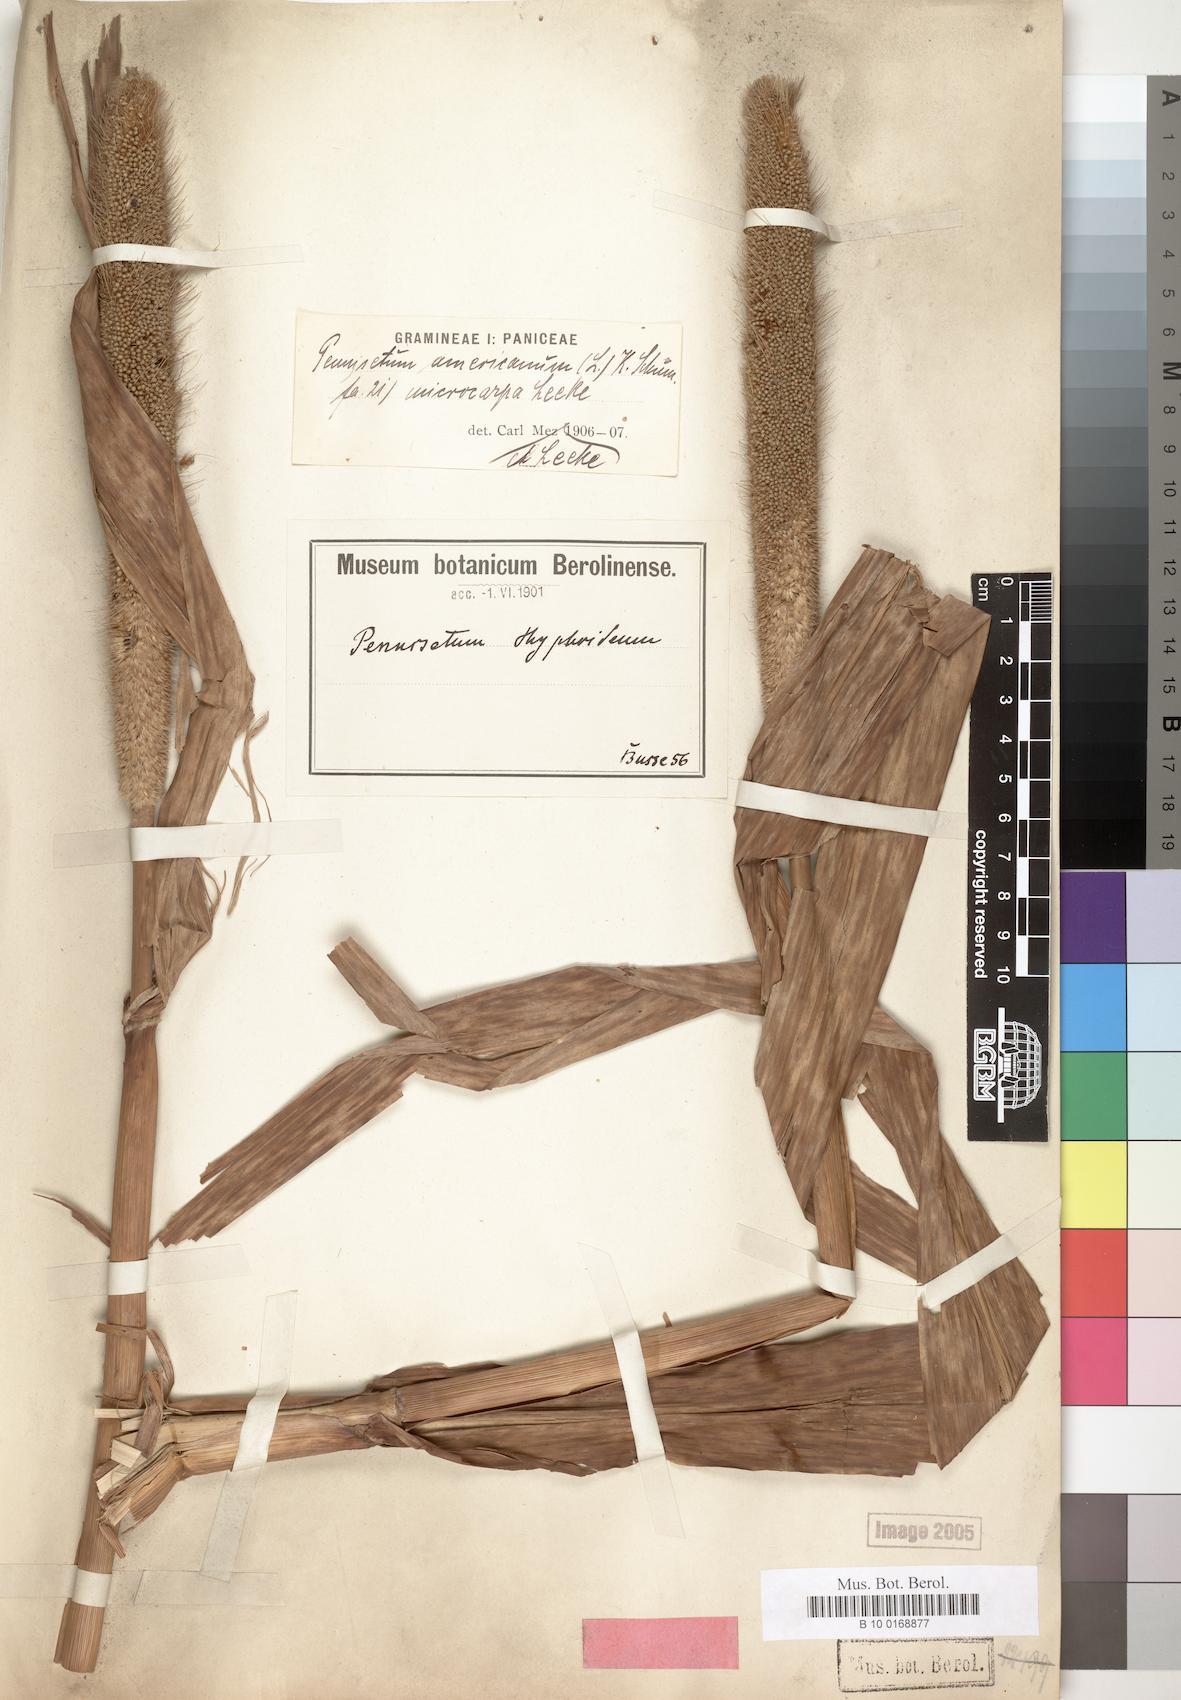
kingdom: Plantae
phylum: Tracheophyta
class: Liliopsida
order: Poales
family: Poaceae
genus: Cenchrus
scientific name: Cenchrus americanus
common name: Pearl millet
